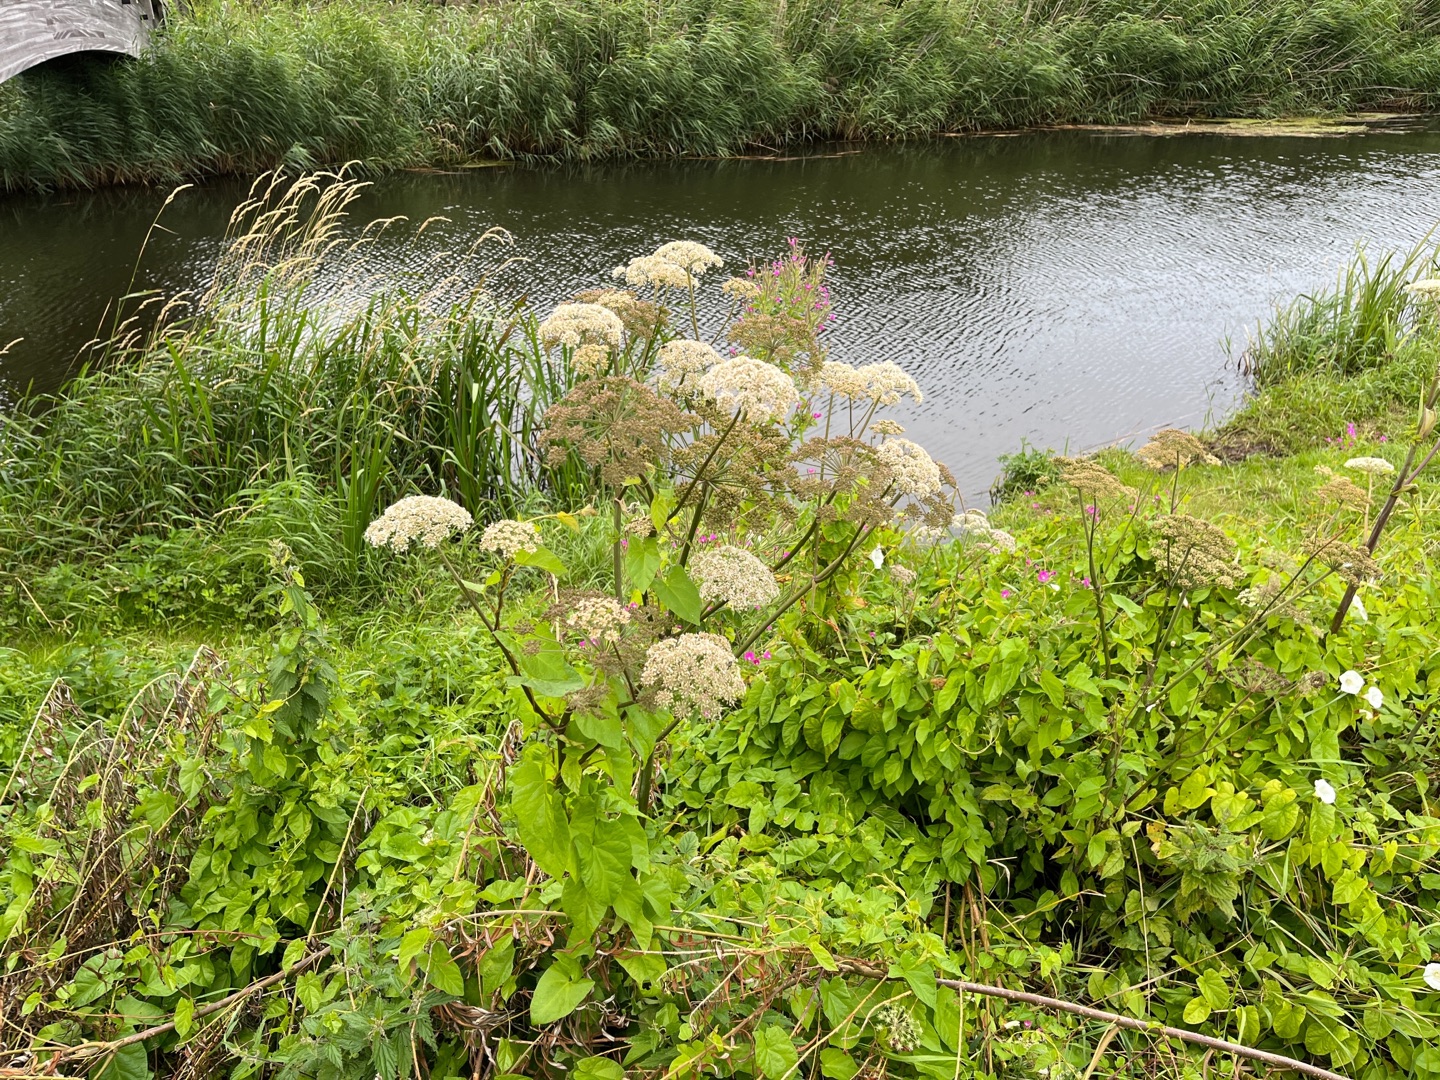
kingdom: Plantae
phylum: Tracheophyta
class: Magnoliopsida
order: Apiales
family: Apiaceae
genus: Angelica
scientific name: Angelica sylvestris
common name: Angelik
